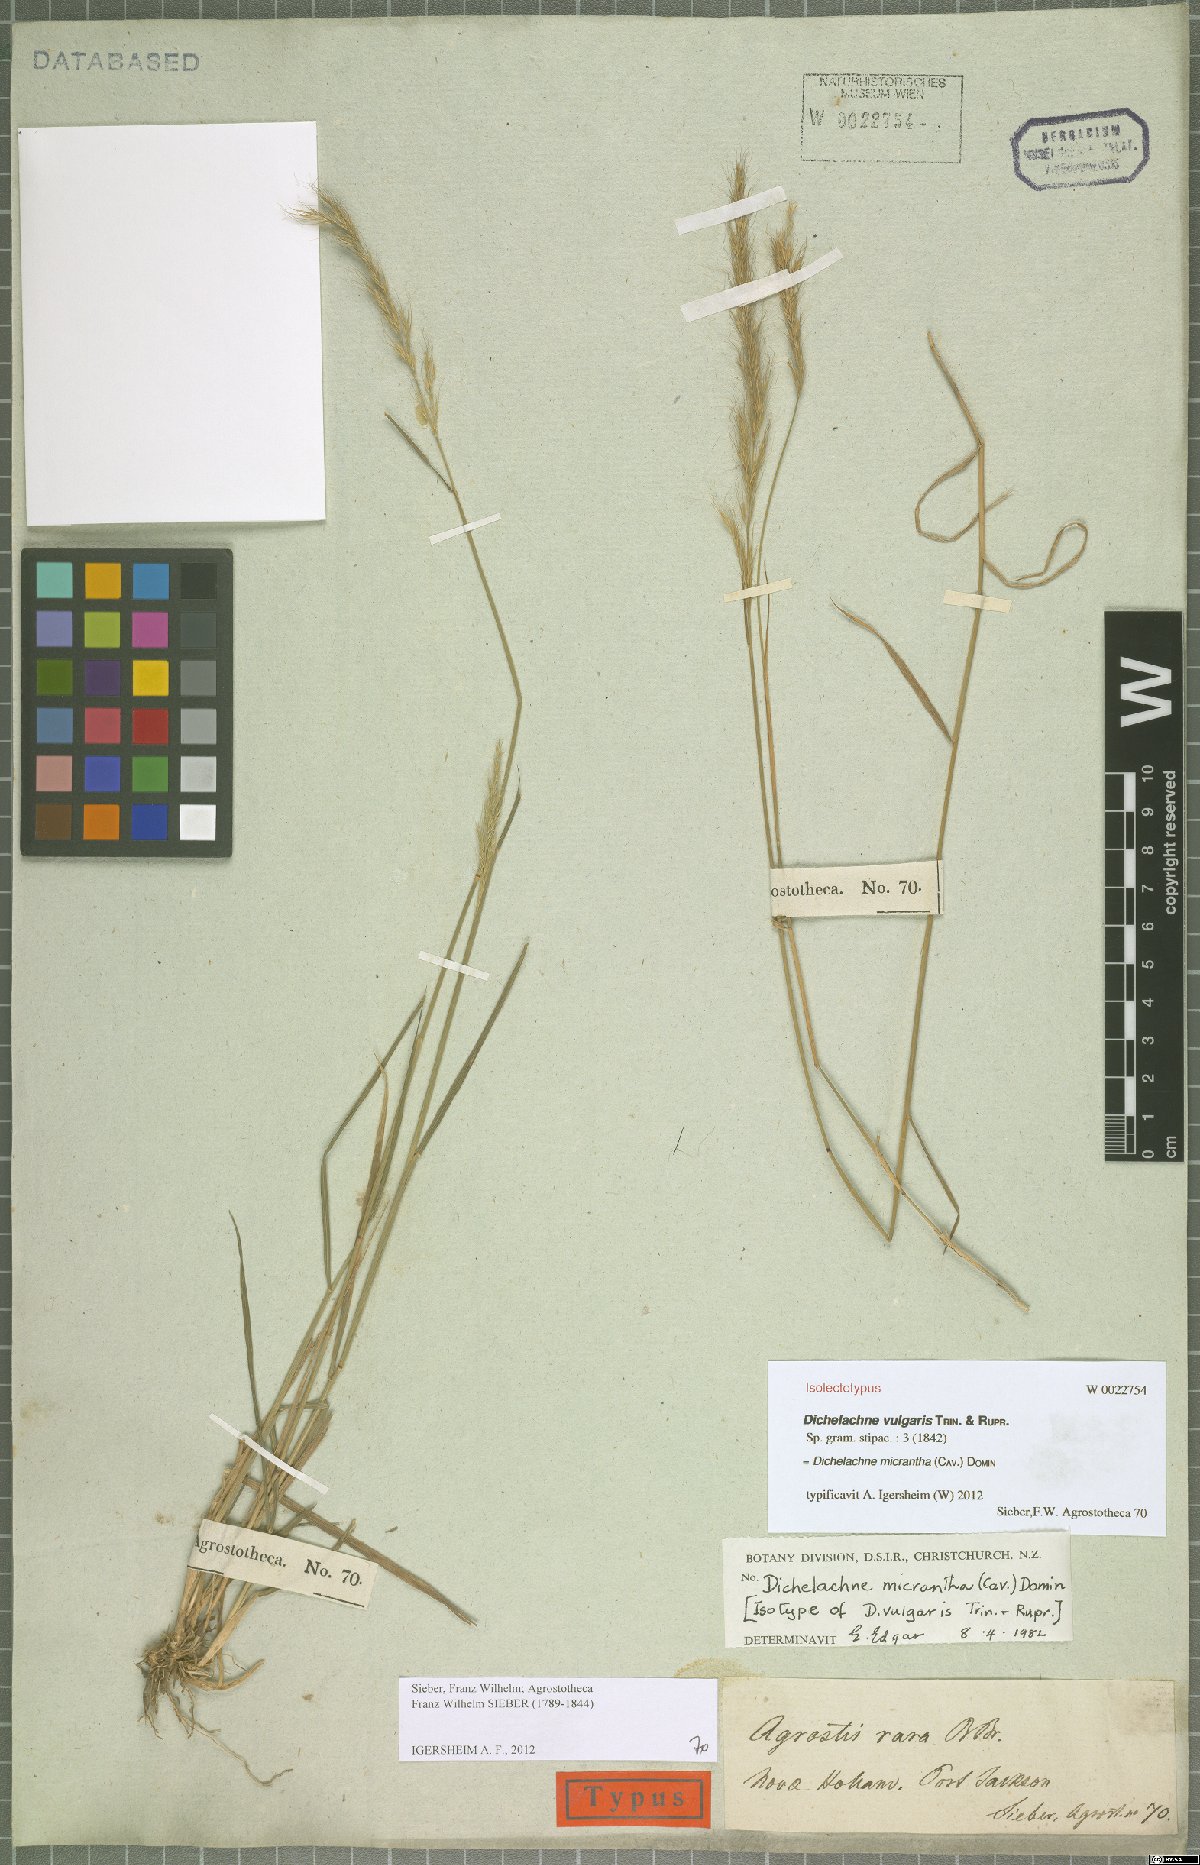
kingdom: Plantae
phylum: Tracheophyta
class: Liliopsida
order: Poales
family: Poaceae
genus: Dichelachne
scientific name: Dichelachne micrantha
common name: Plumegrass
